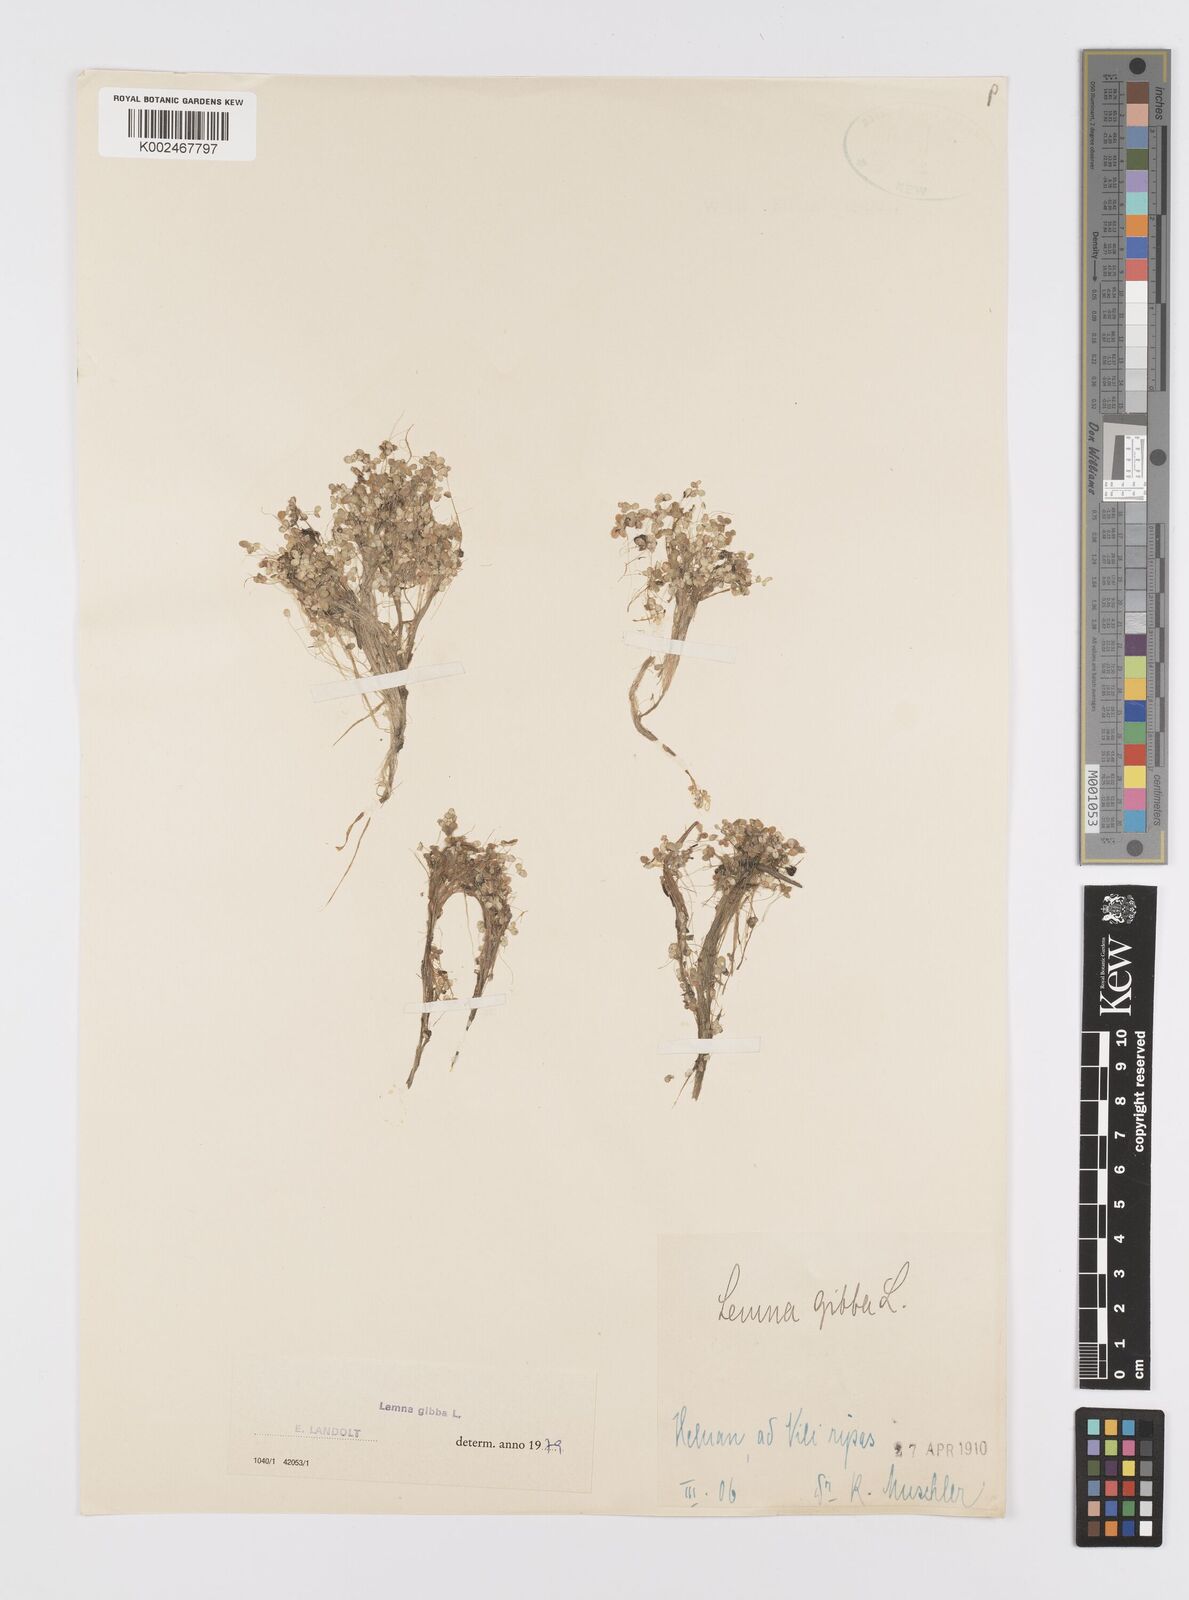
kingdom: Plantae
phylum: Tracheophyta
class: Liliopsida
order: Alismatales
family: Araceae
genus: Lemna
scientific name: Lemna gibba
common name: Fat duckweed
